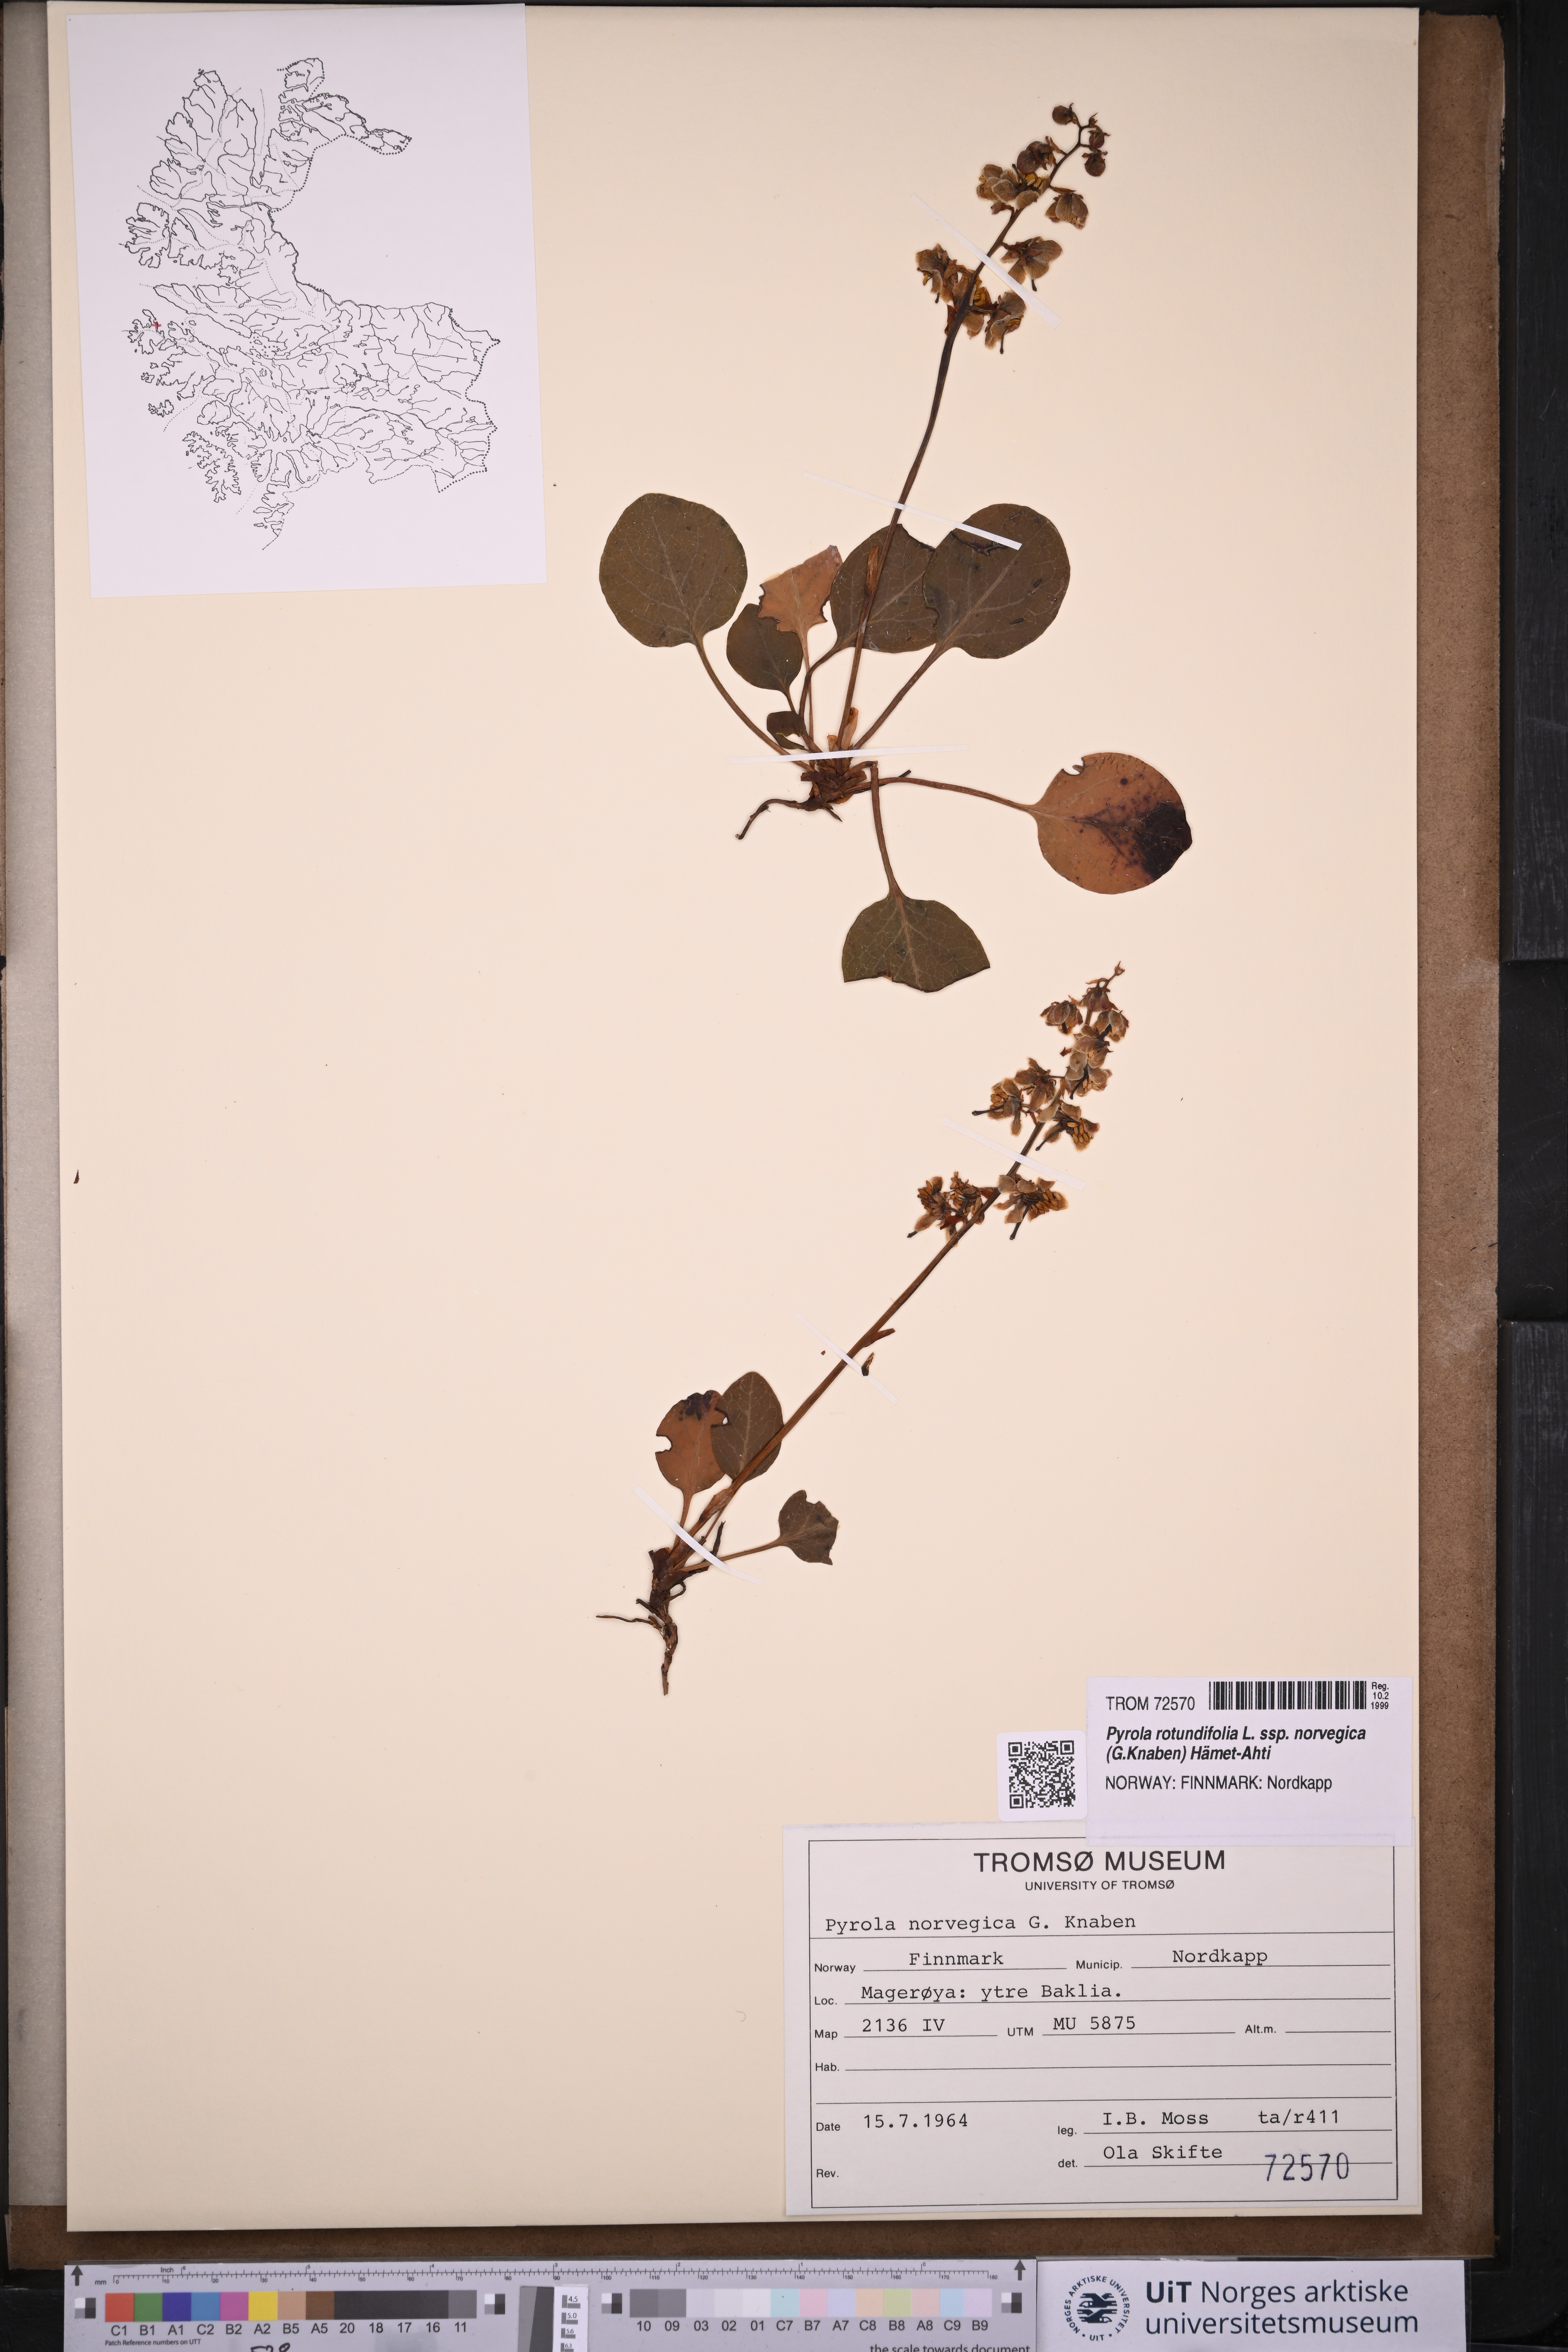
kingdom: Plantae
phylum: Tracheophyta
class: Magnoliopsida
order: Ericales
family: Ericaceae
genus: Pyrola
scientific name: Pyrola rotundifolia
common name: Round-leaved wintergreen
